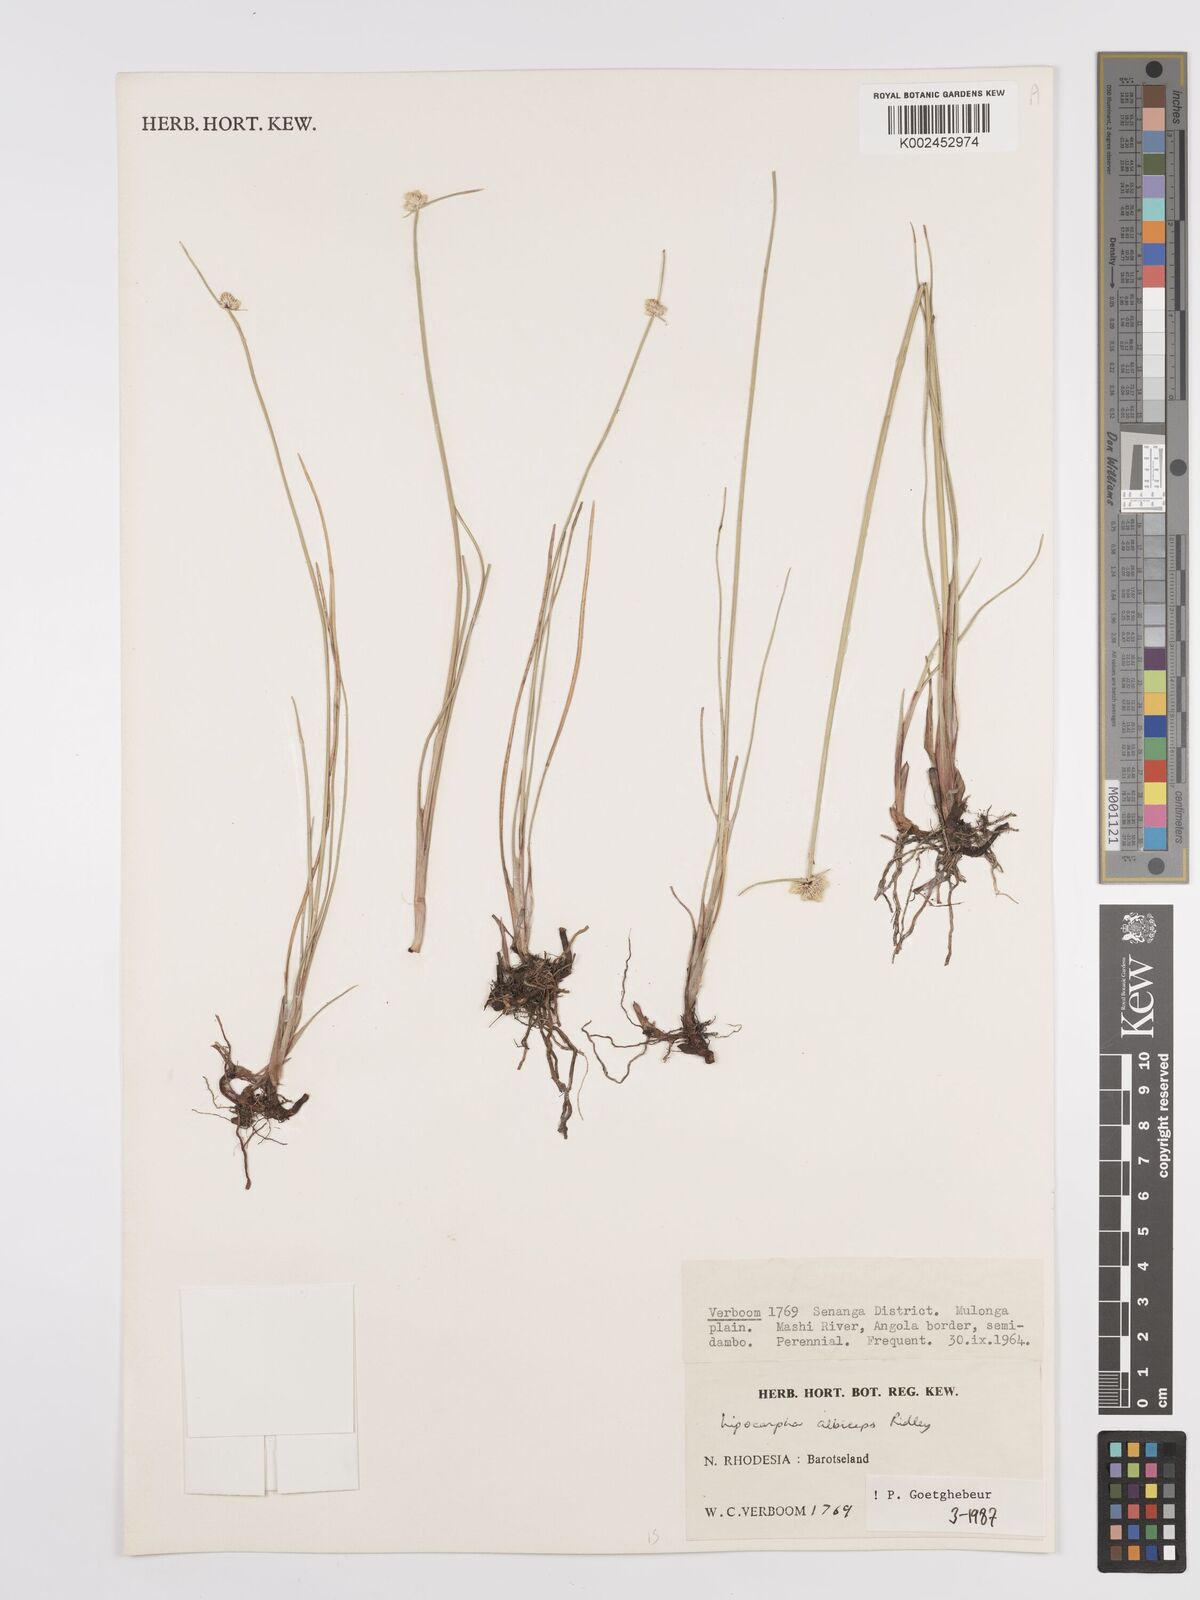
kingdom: Plantae
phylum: Tracheophyta
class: Liliopsida
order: Poales
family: Cyperaceae
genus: Cyperus
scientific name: Cyperus albiceps
